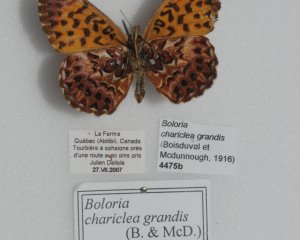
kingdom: Animalia
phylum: Arthropoda
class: Insecta
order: Lepidoptera
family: Nymphalidae
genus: Boloria
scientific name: Boloria chariclea
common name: Arctic Fritillary
